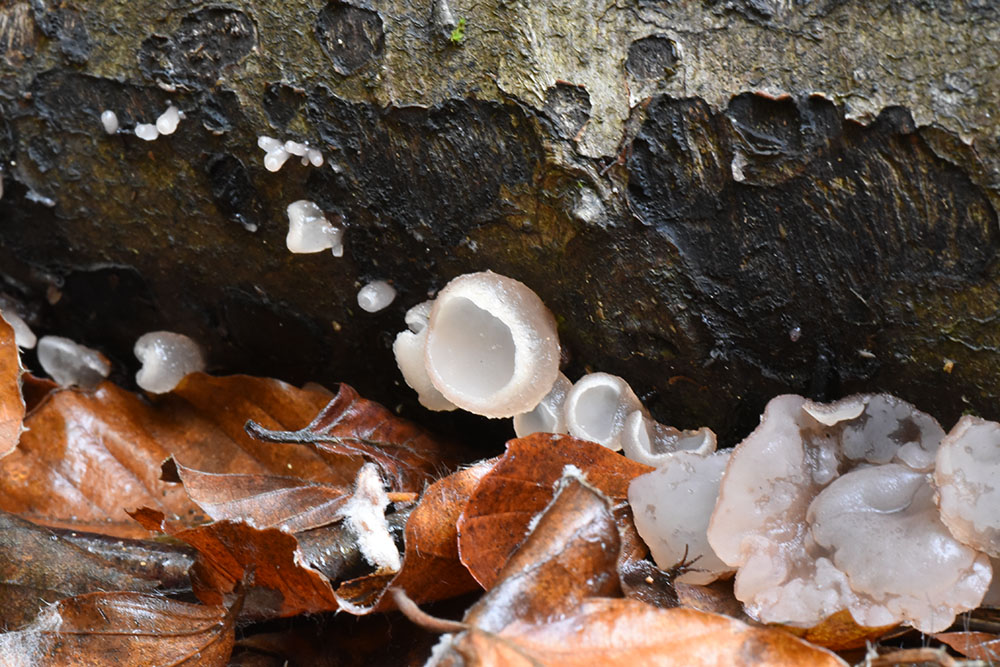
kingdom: Fungi
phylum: Ascomycota
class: Leotiomycetes
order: Helotiales
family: Gelatinodiscaceae
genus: Neobulgaria
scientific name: Neobulgaria pura
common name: Beech jelly-disc
